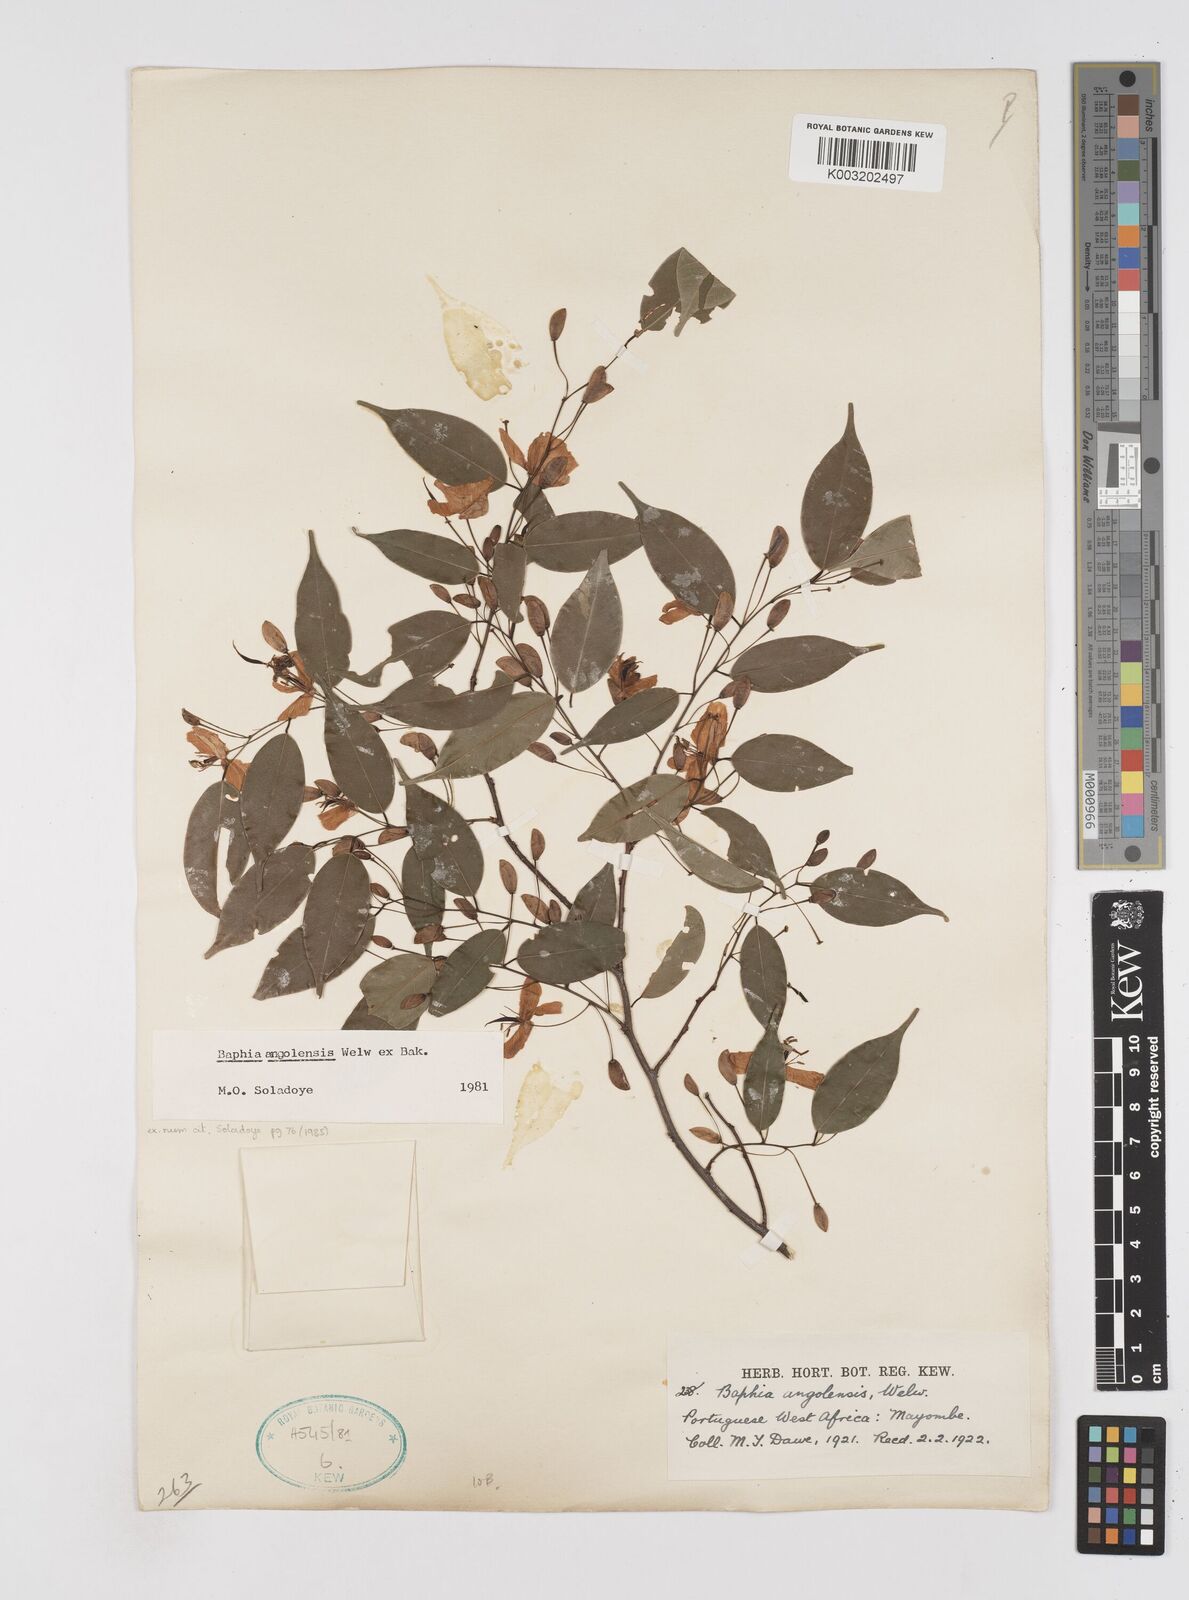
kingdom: Plantae
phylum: Tracheophyta
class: Magnoliopsida
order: Fabales
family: Fabaceae
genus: Baphia
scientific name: Baphia angolensis
